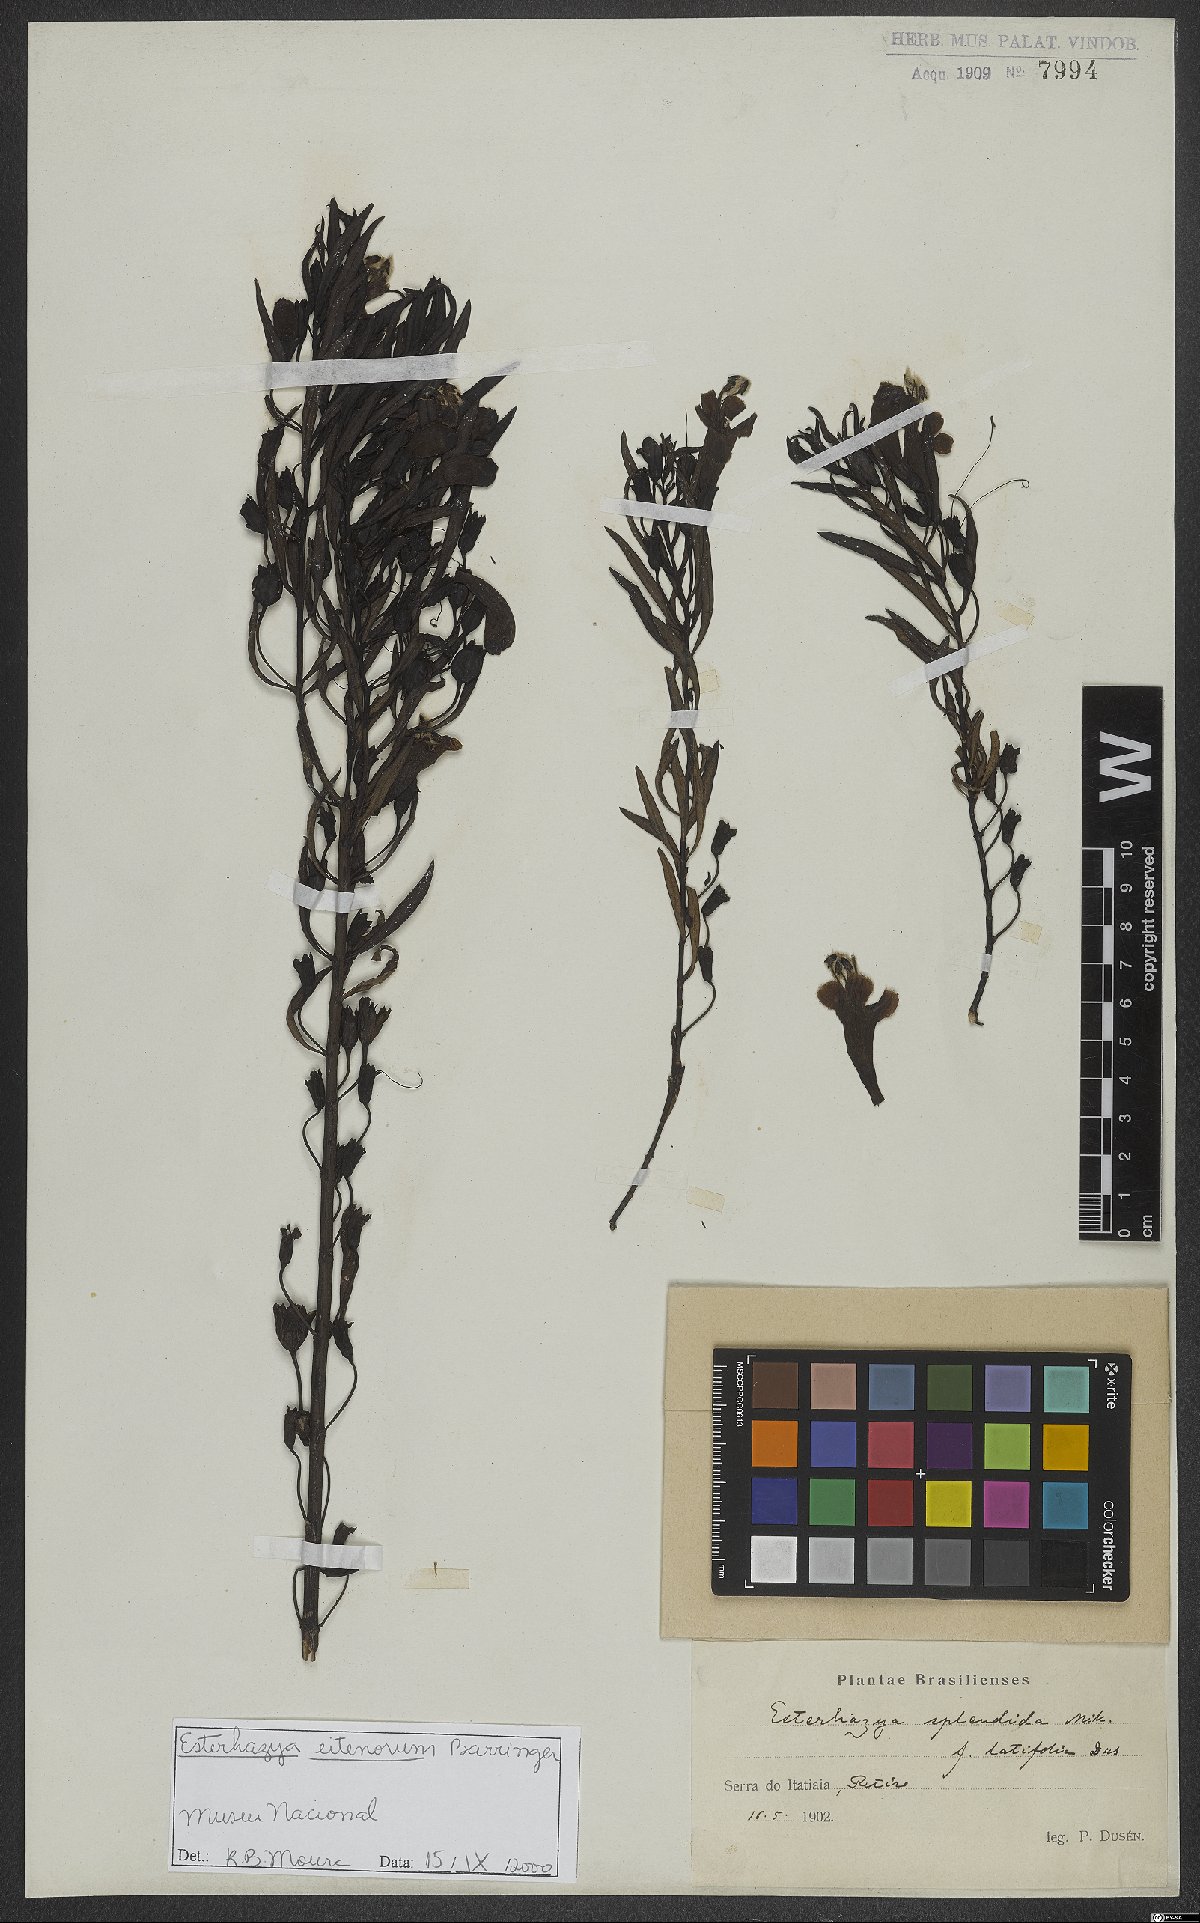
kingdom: Plantae
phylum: Tracheophyta
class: Magnoliopsida
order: Lamiales
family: Orobanchaceae
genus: Esterhazya
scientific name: Esterhazya eitenorum
